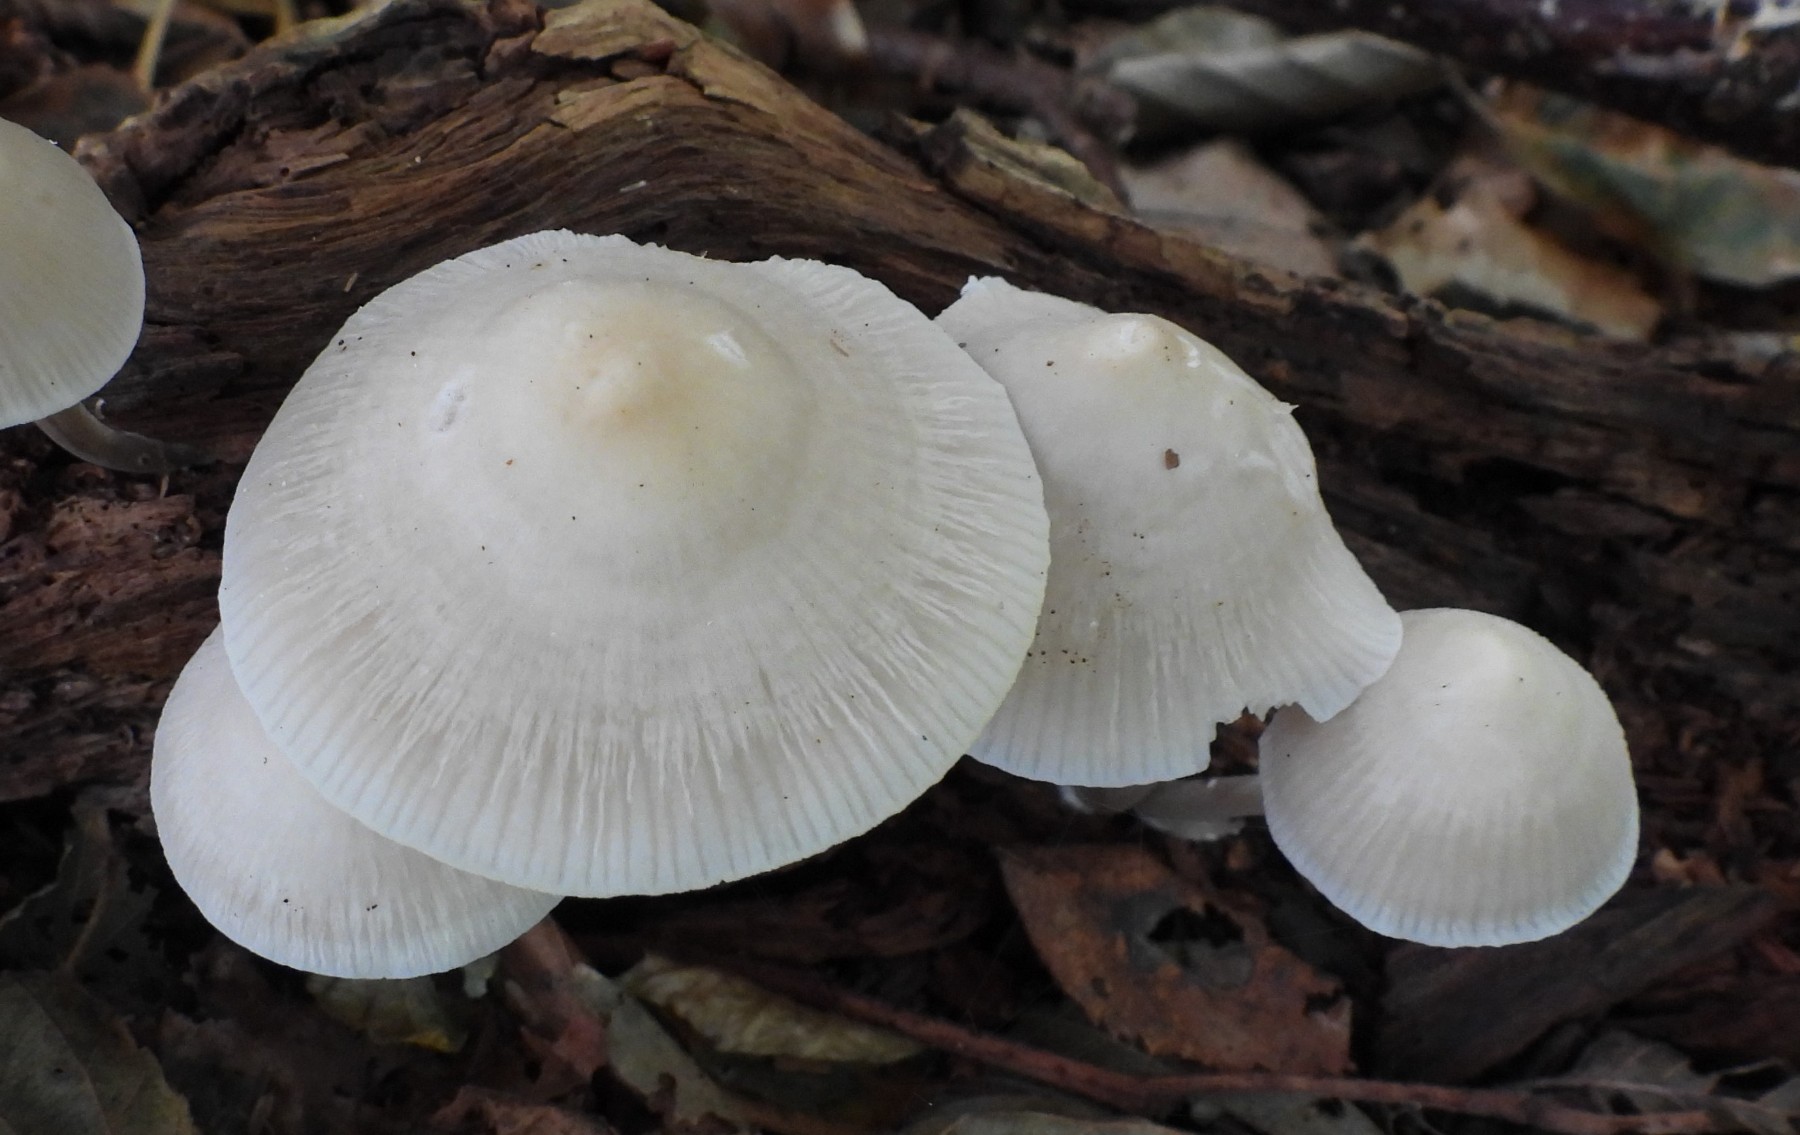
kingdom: Fungi
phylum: Basidiomycota
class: Agaricomycetes
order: Agaricales
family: Mycenaceae
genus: Mycena
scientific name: Mycena galericulata
